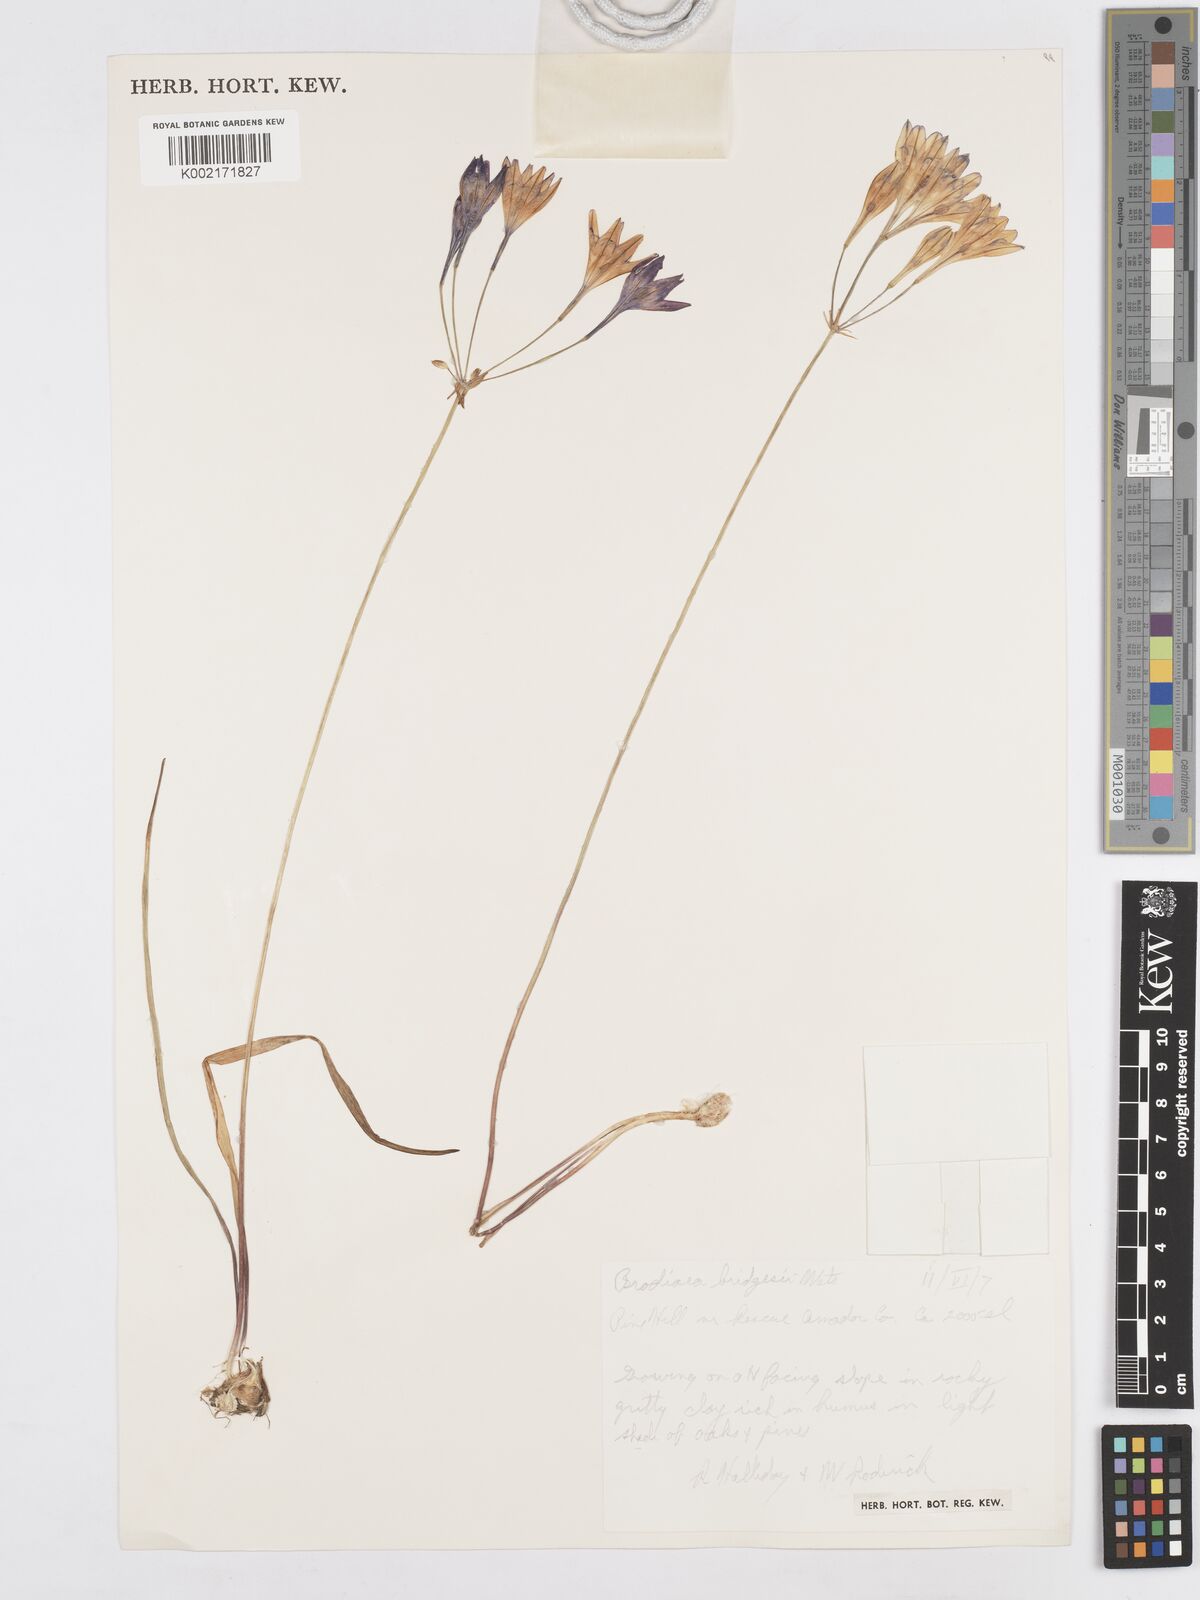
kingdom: Plantae
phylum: Tracheophyta
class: Liliopsida
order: Asparagales
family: Asparagaceae
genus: Triteleia
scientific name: Triteleia bridgesii
